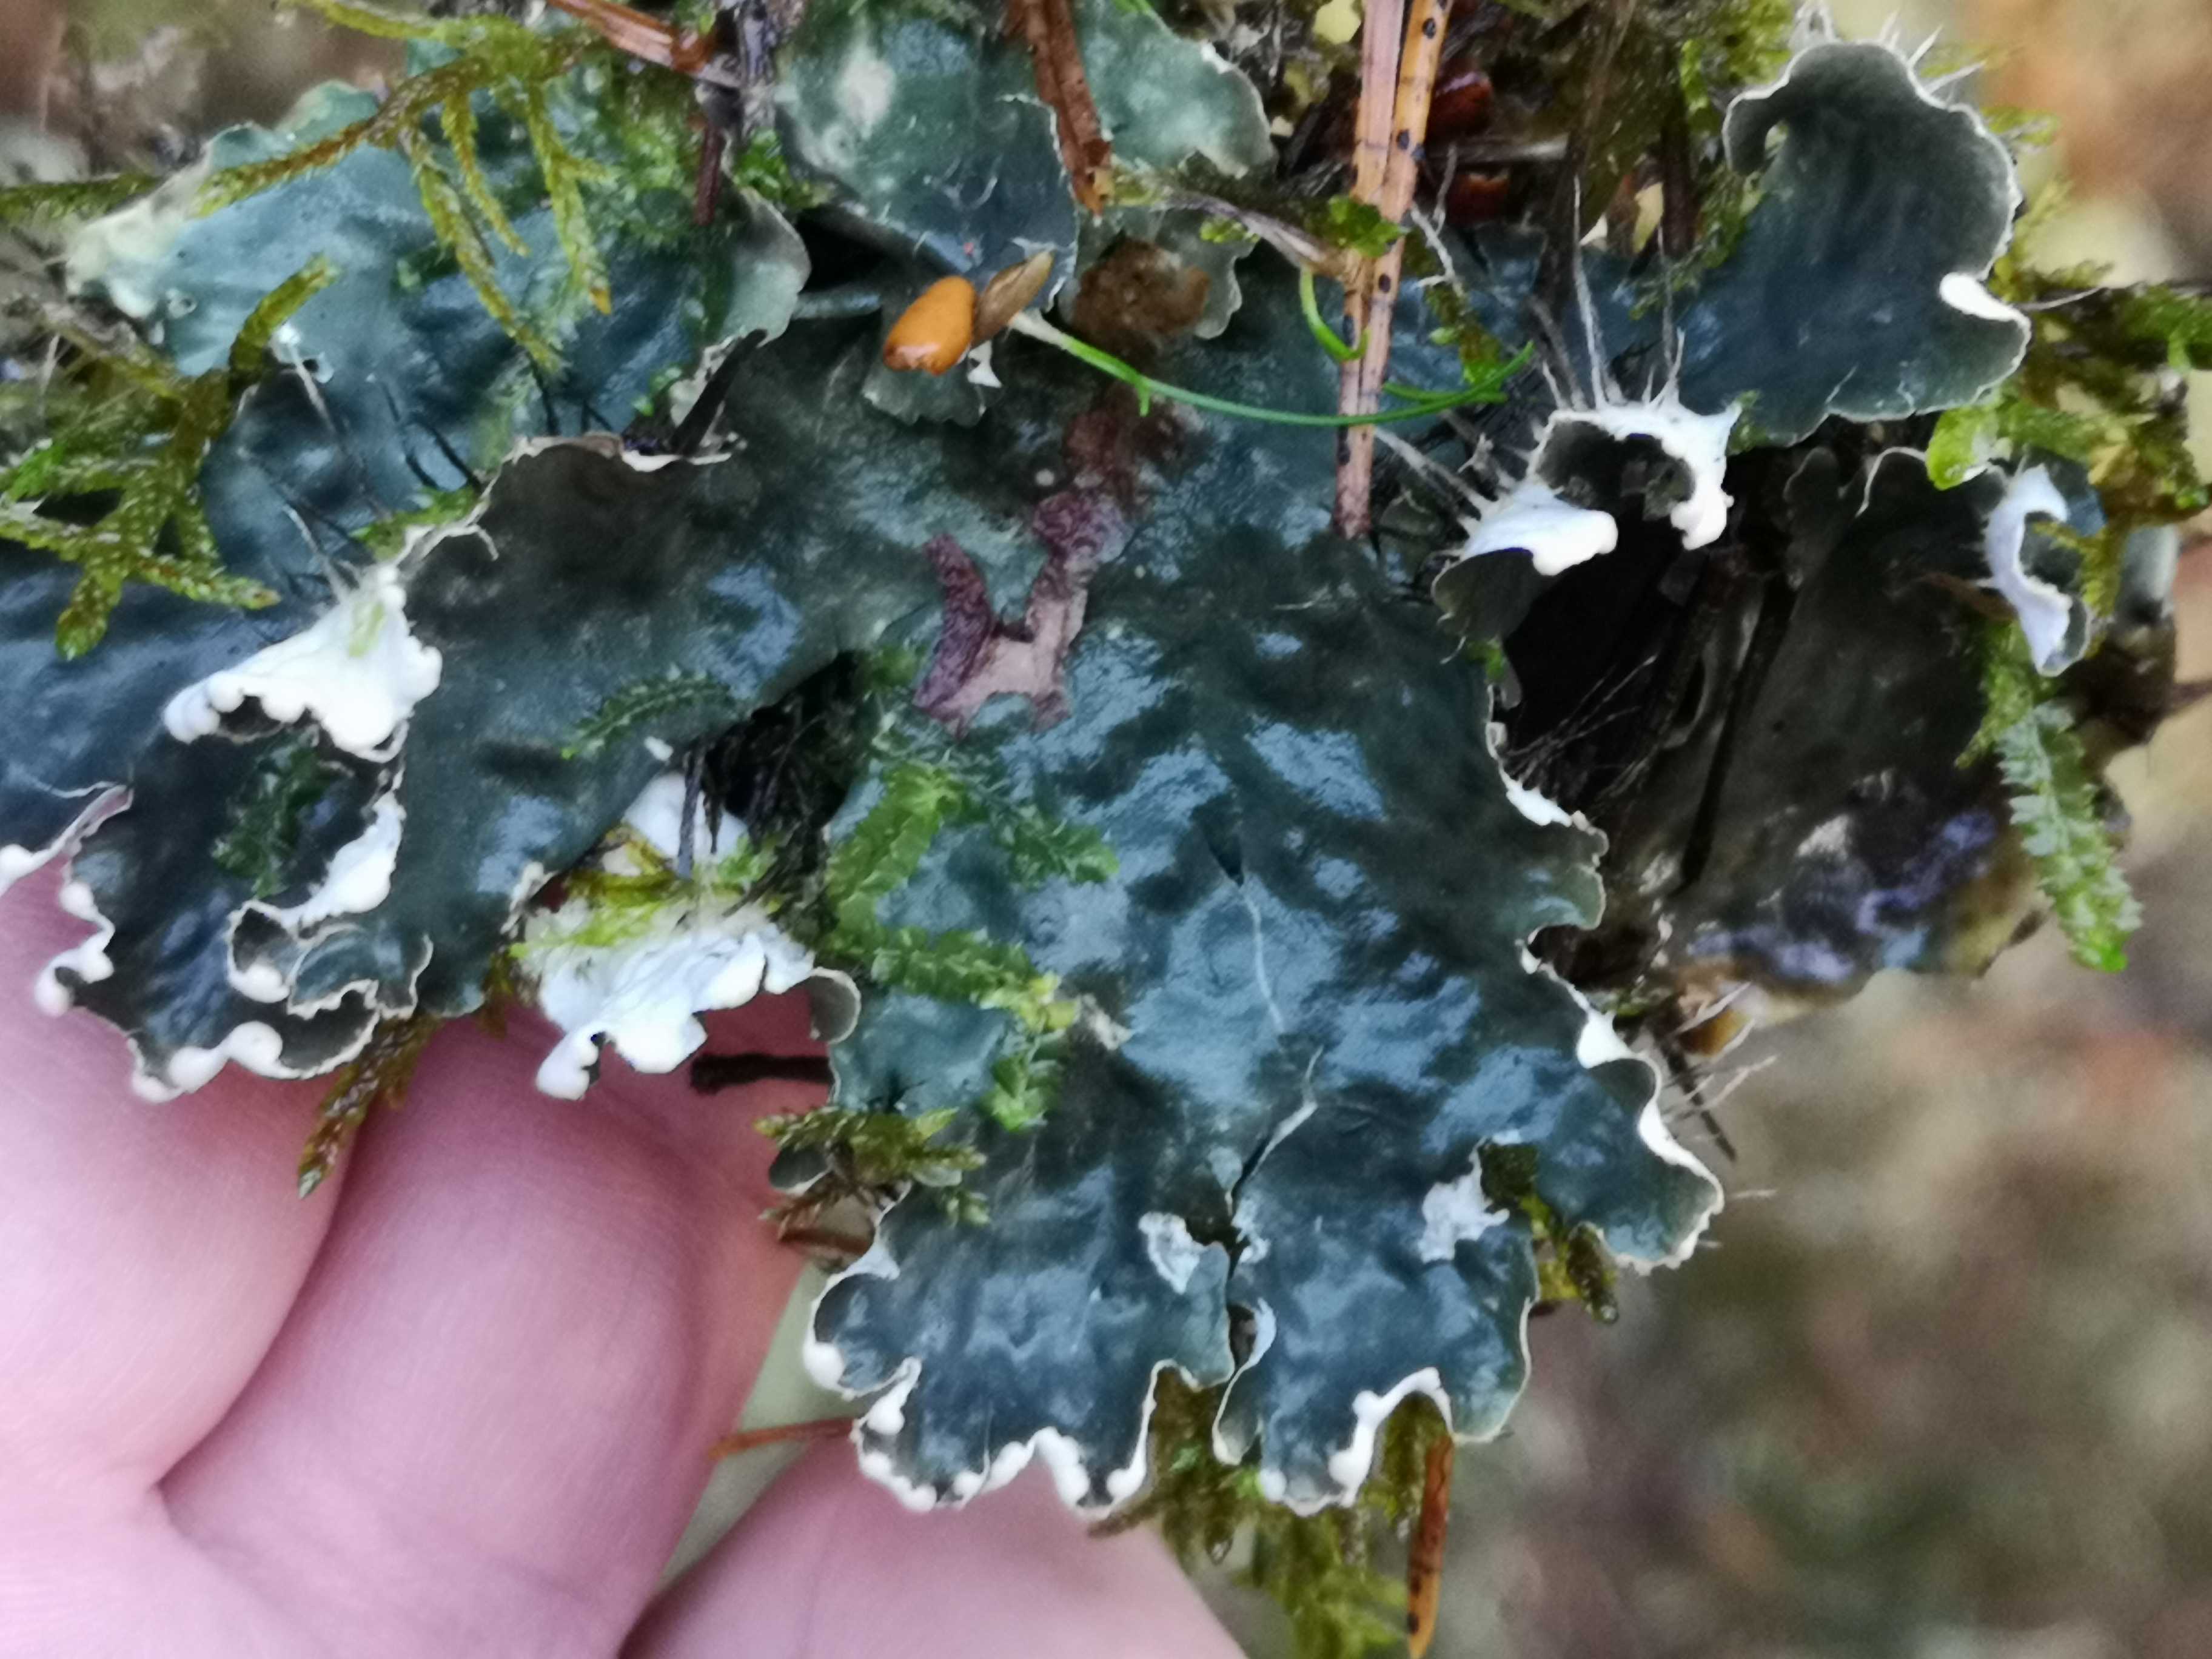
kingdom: Fungi
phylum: Ascomycota
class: Lecanoromycetes
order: Peltigerales
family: Peltigeraceae
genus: Peltigera
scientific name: Peltigera hymenina
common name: hinde-skjoldlav
